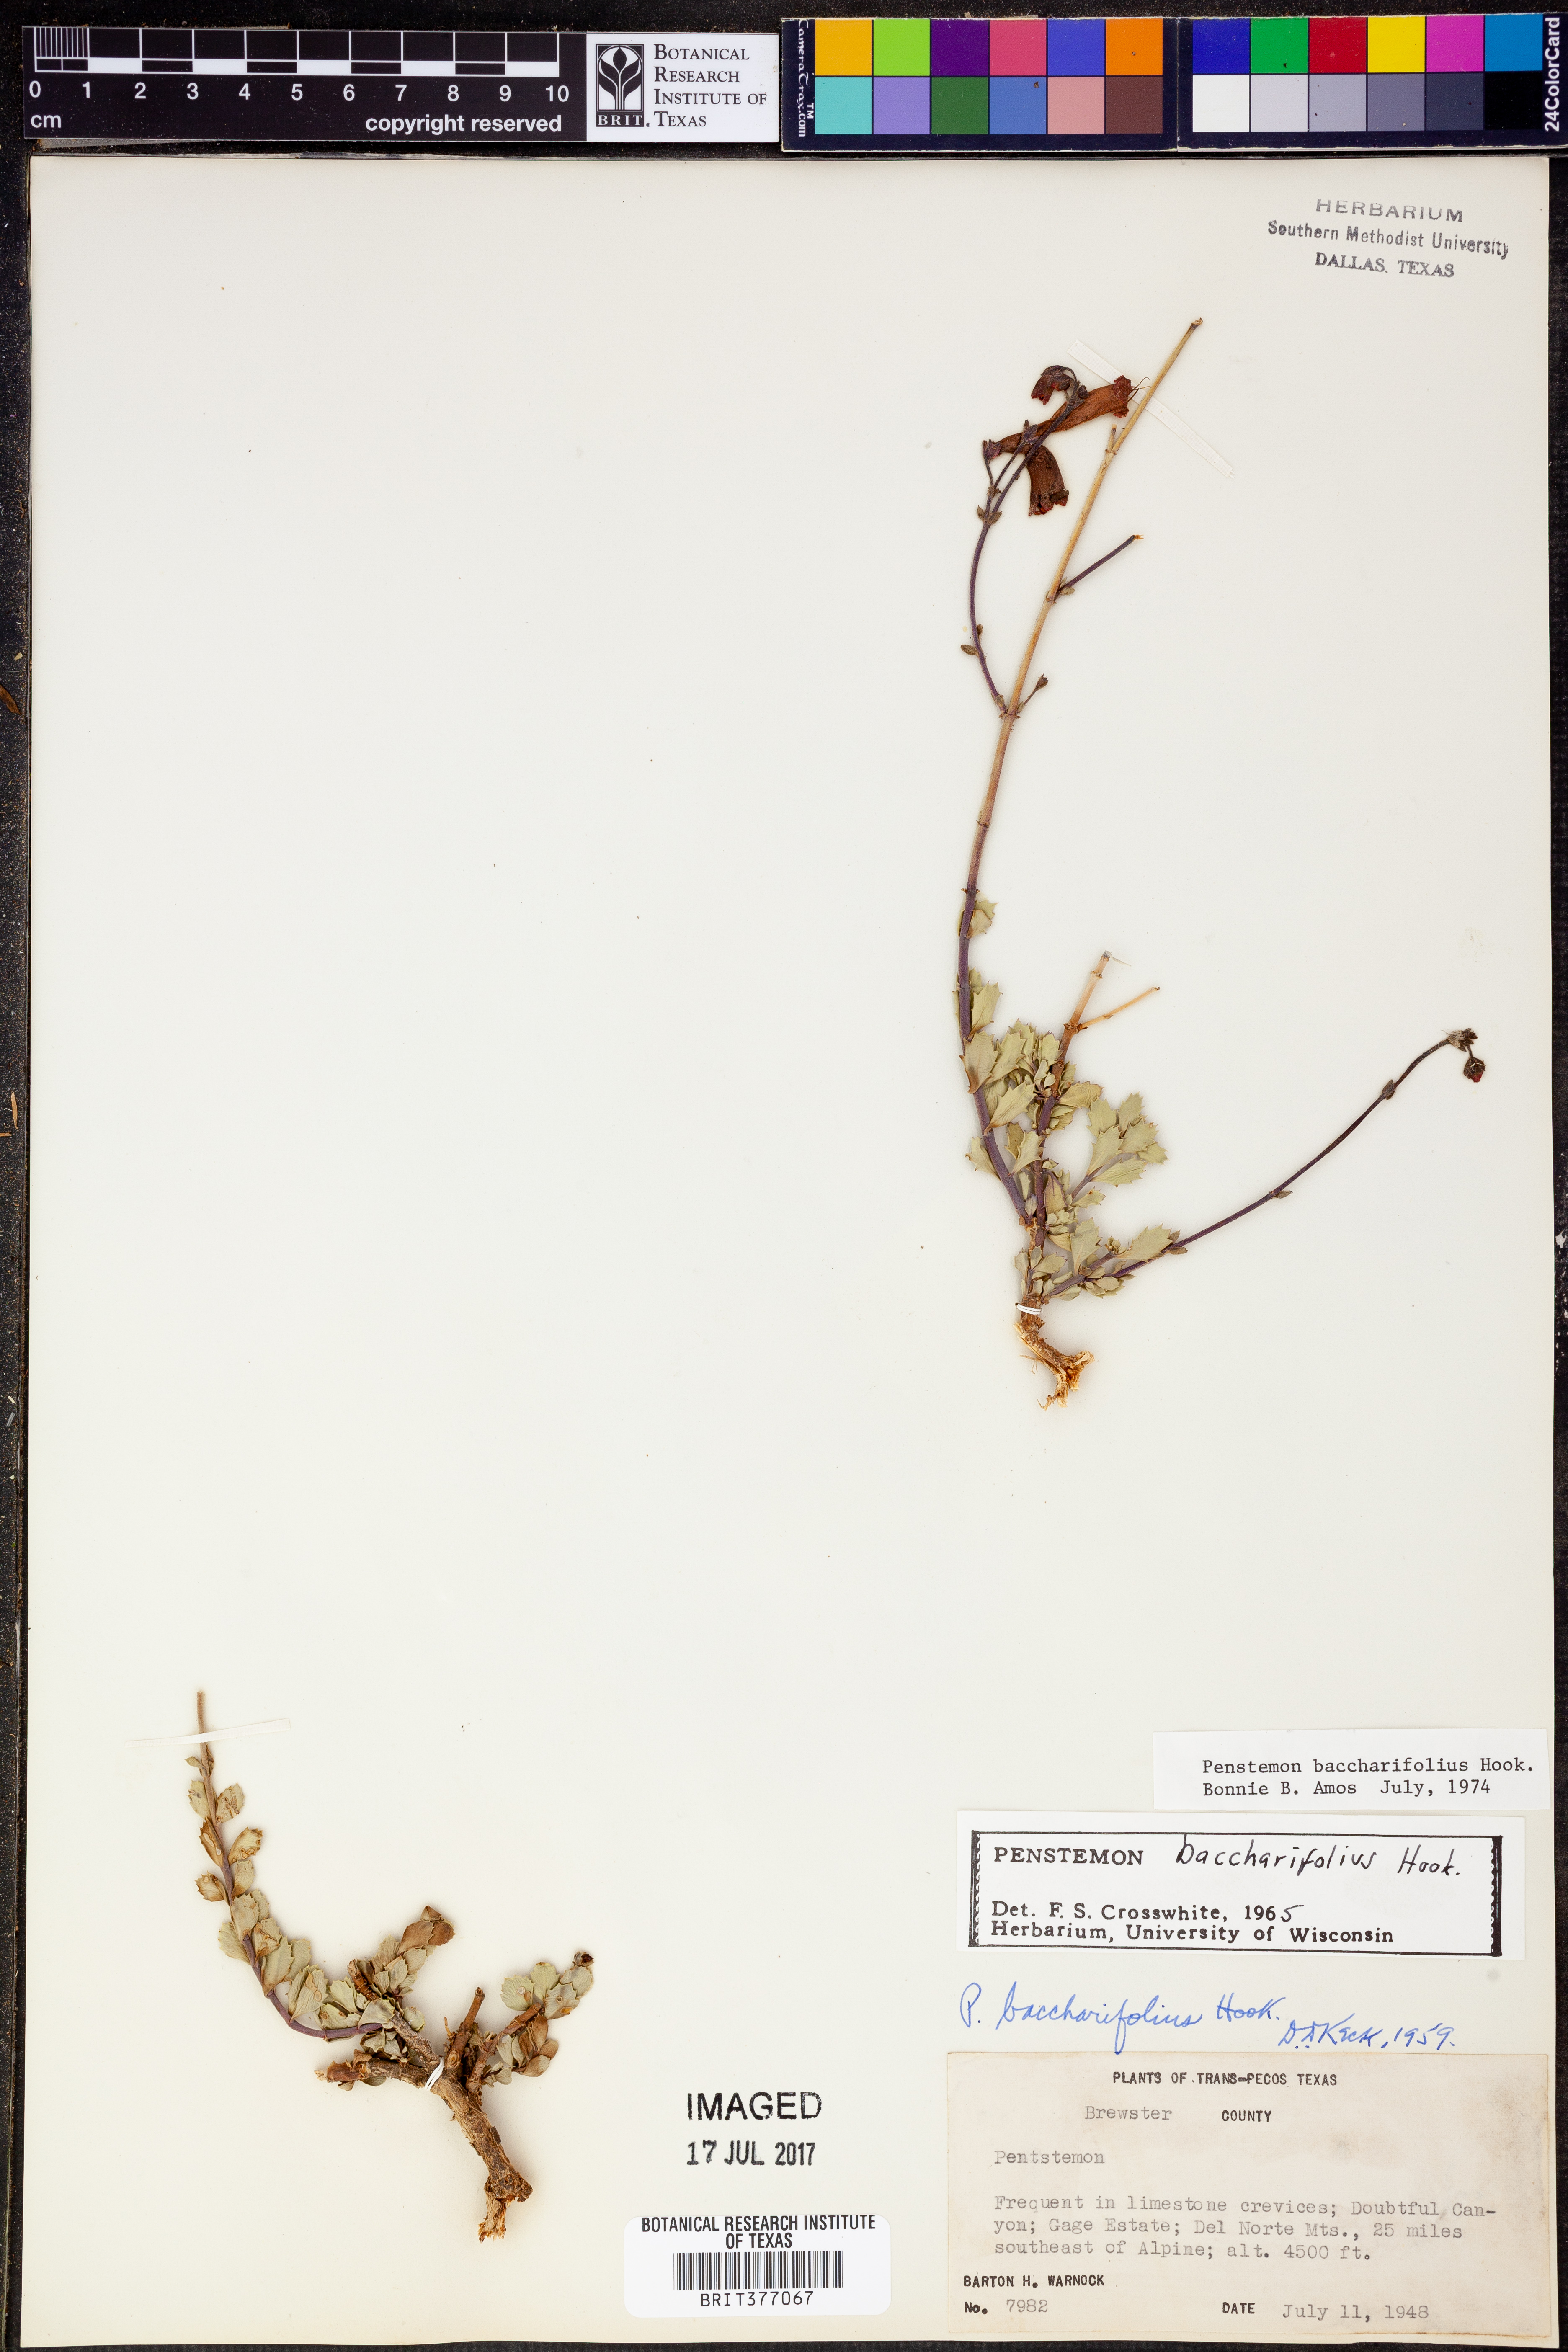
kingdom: Plantae
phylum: Tracheophyta
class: Magnoliopsida
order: Lamiales
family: Plantaginaceae
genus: Penstemon
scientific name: Penstemon baccharifolius
